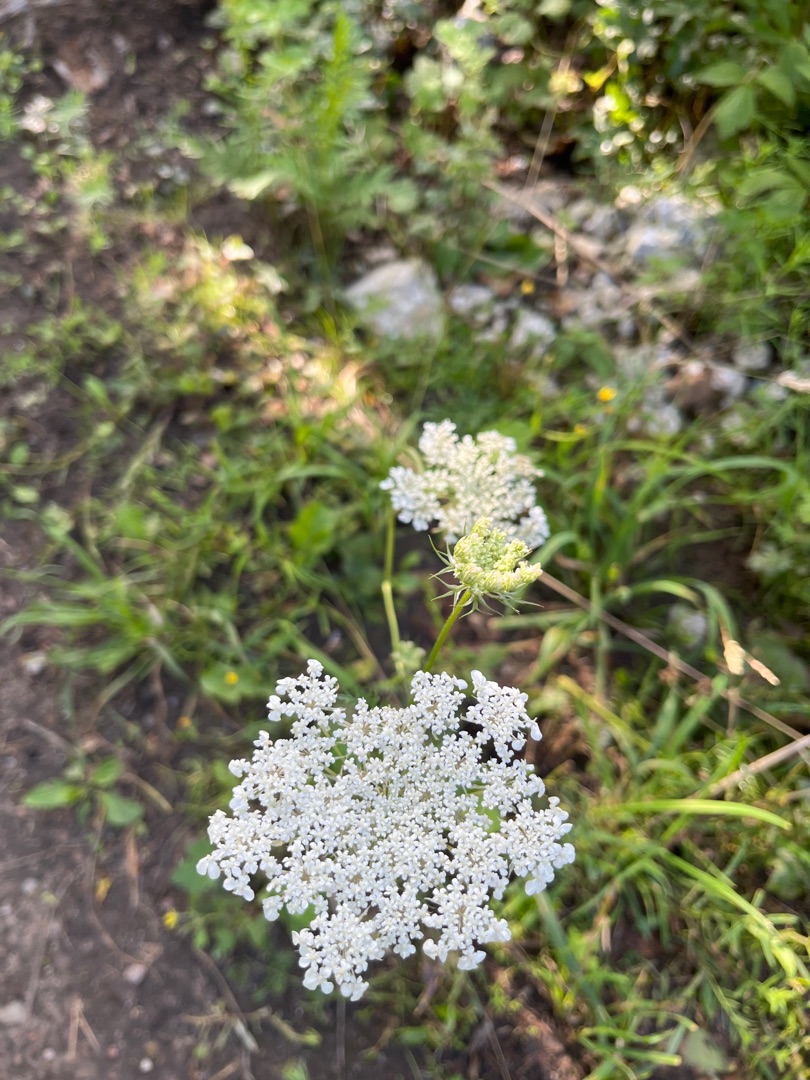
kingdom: Plantae
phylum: Tracheophyta
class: Magnoliopsida
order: Apiales
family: Apiaceae
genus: Daucus
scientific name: Daucus carota
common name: Gulerod
